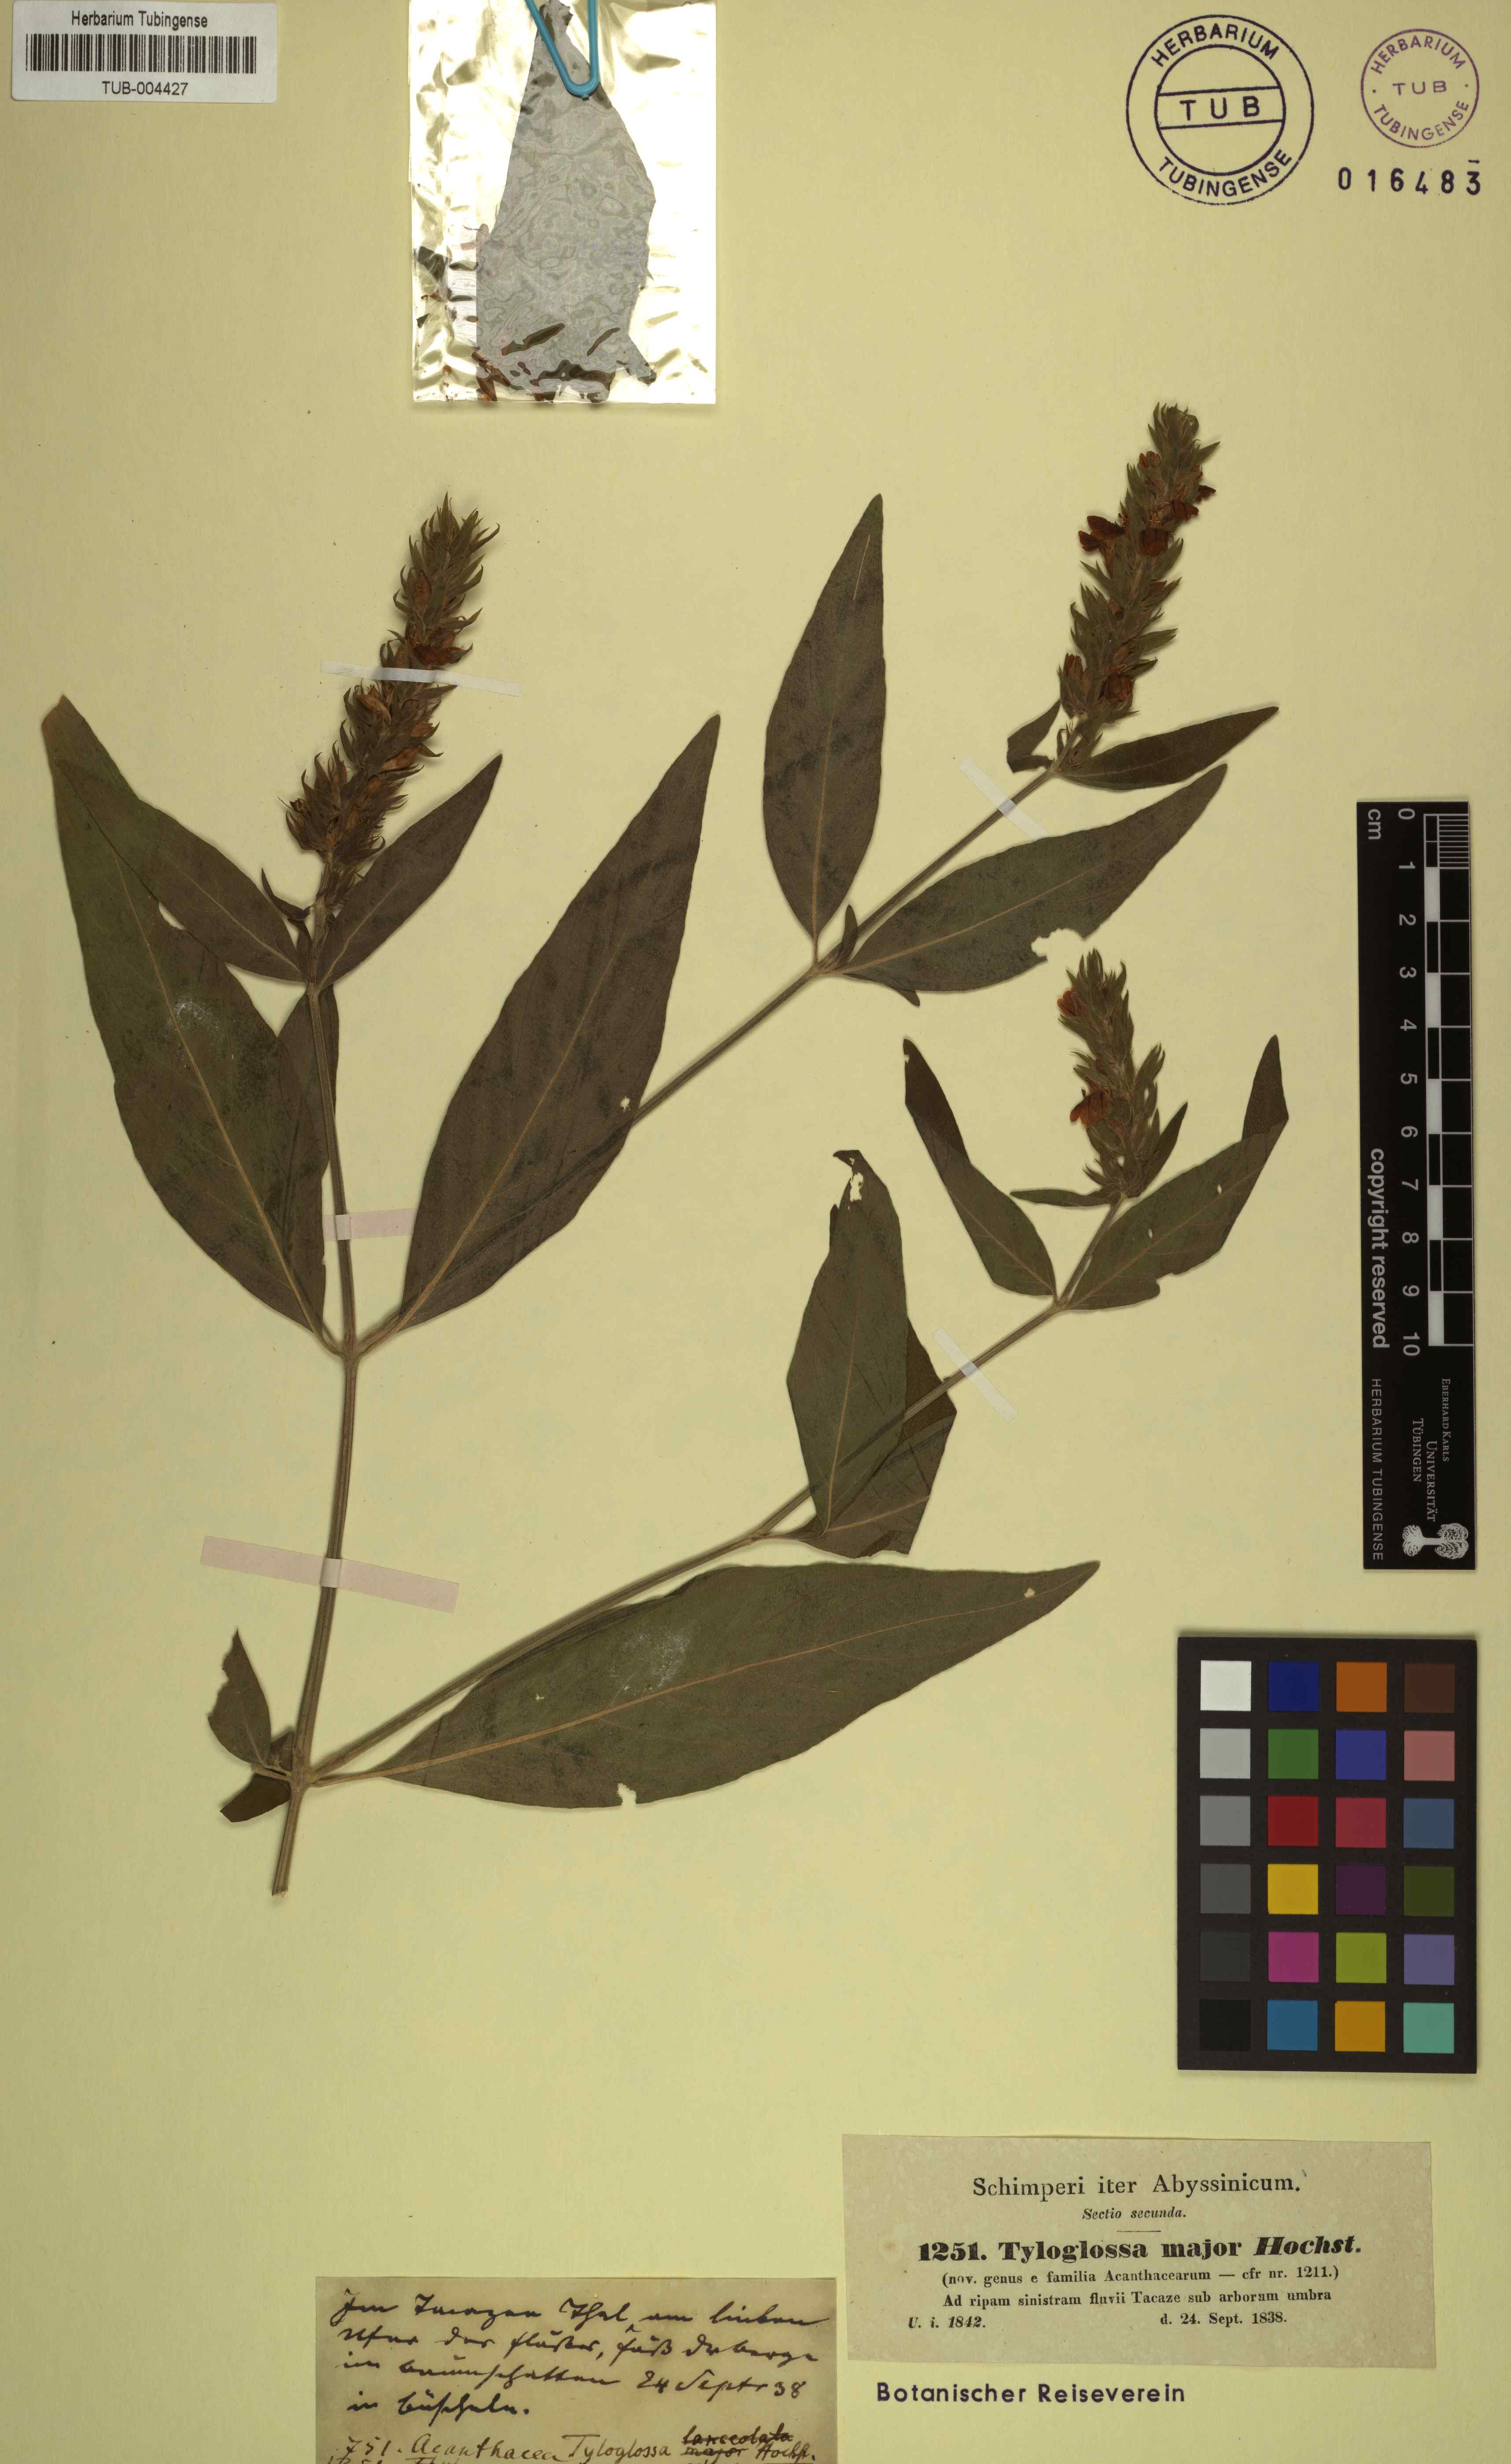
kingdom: Plantae
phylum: Tracheophyta
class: Magnoliopsida
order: Lamiales
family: Acanthaceae
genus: Justicia
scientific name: Justicia flava
